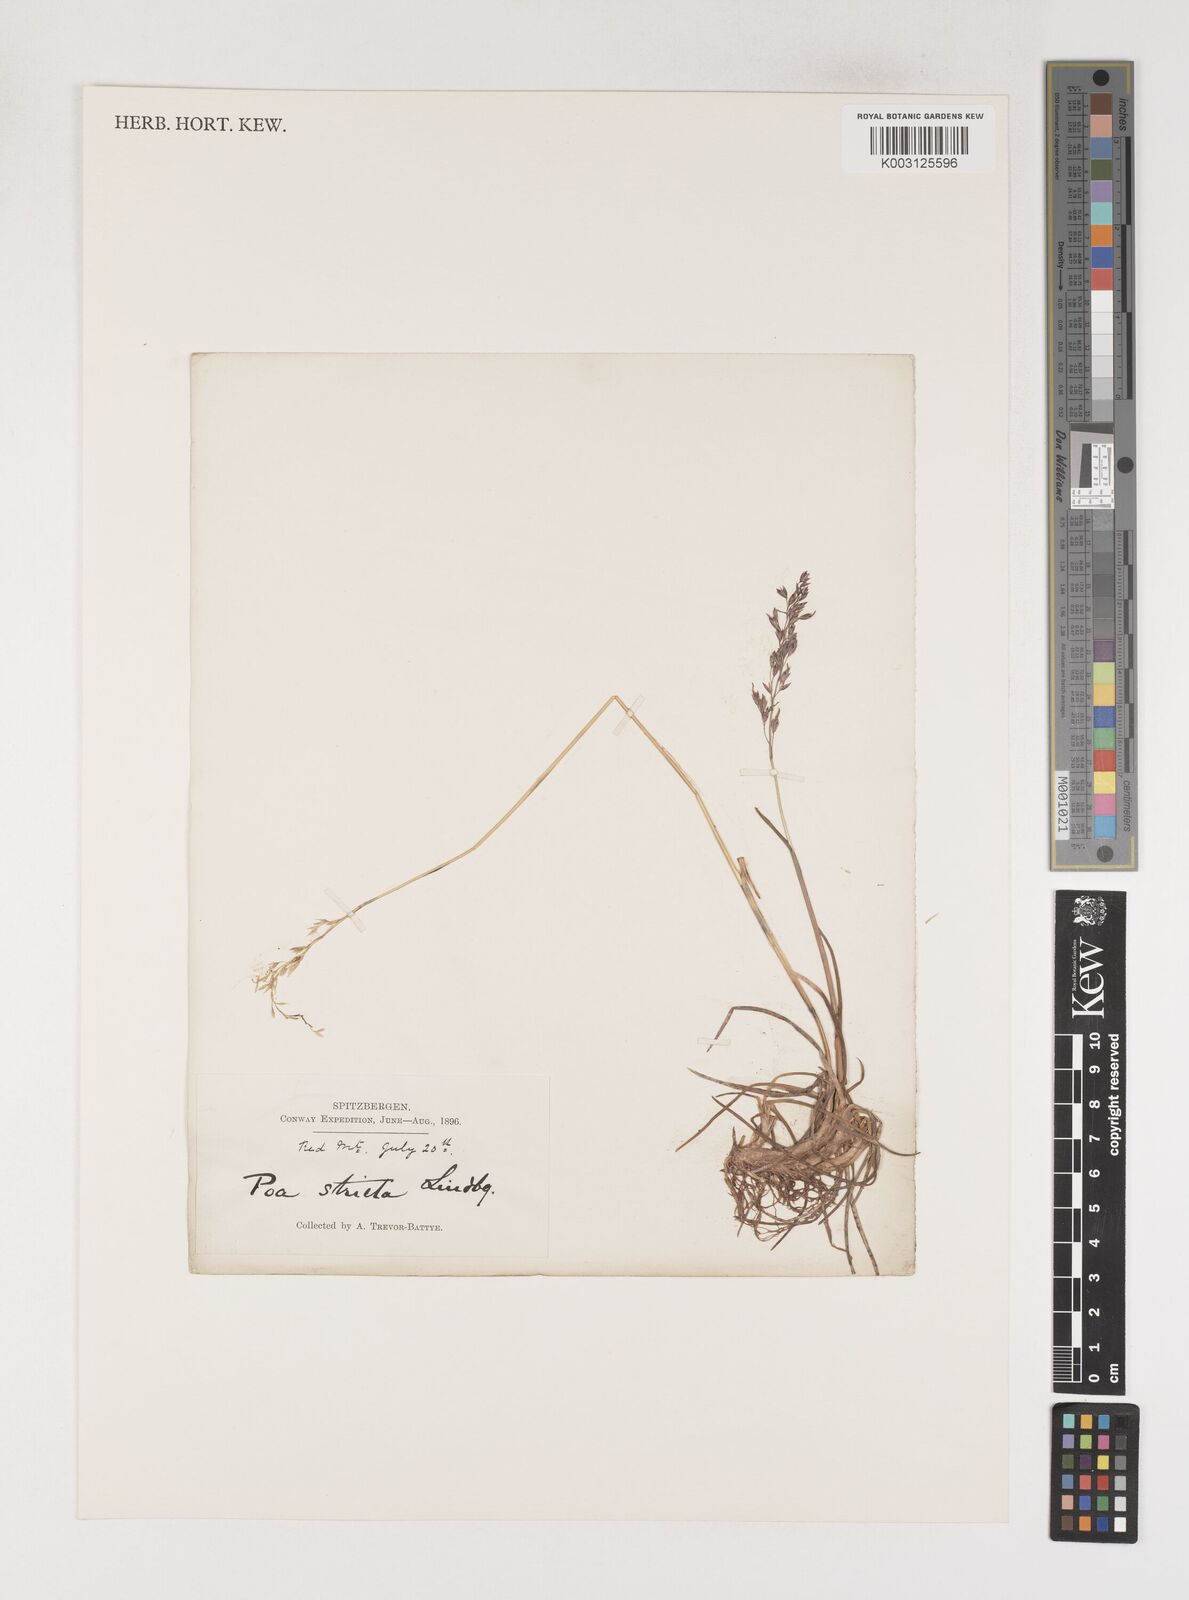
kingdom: Plantae
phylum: Tracheophyta
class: Liliopsida
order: Poales
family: Poaceae
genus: Poa
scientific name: Poa arctica
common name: Arctic bluegrass
